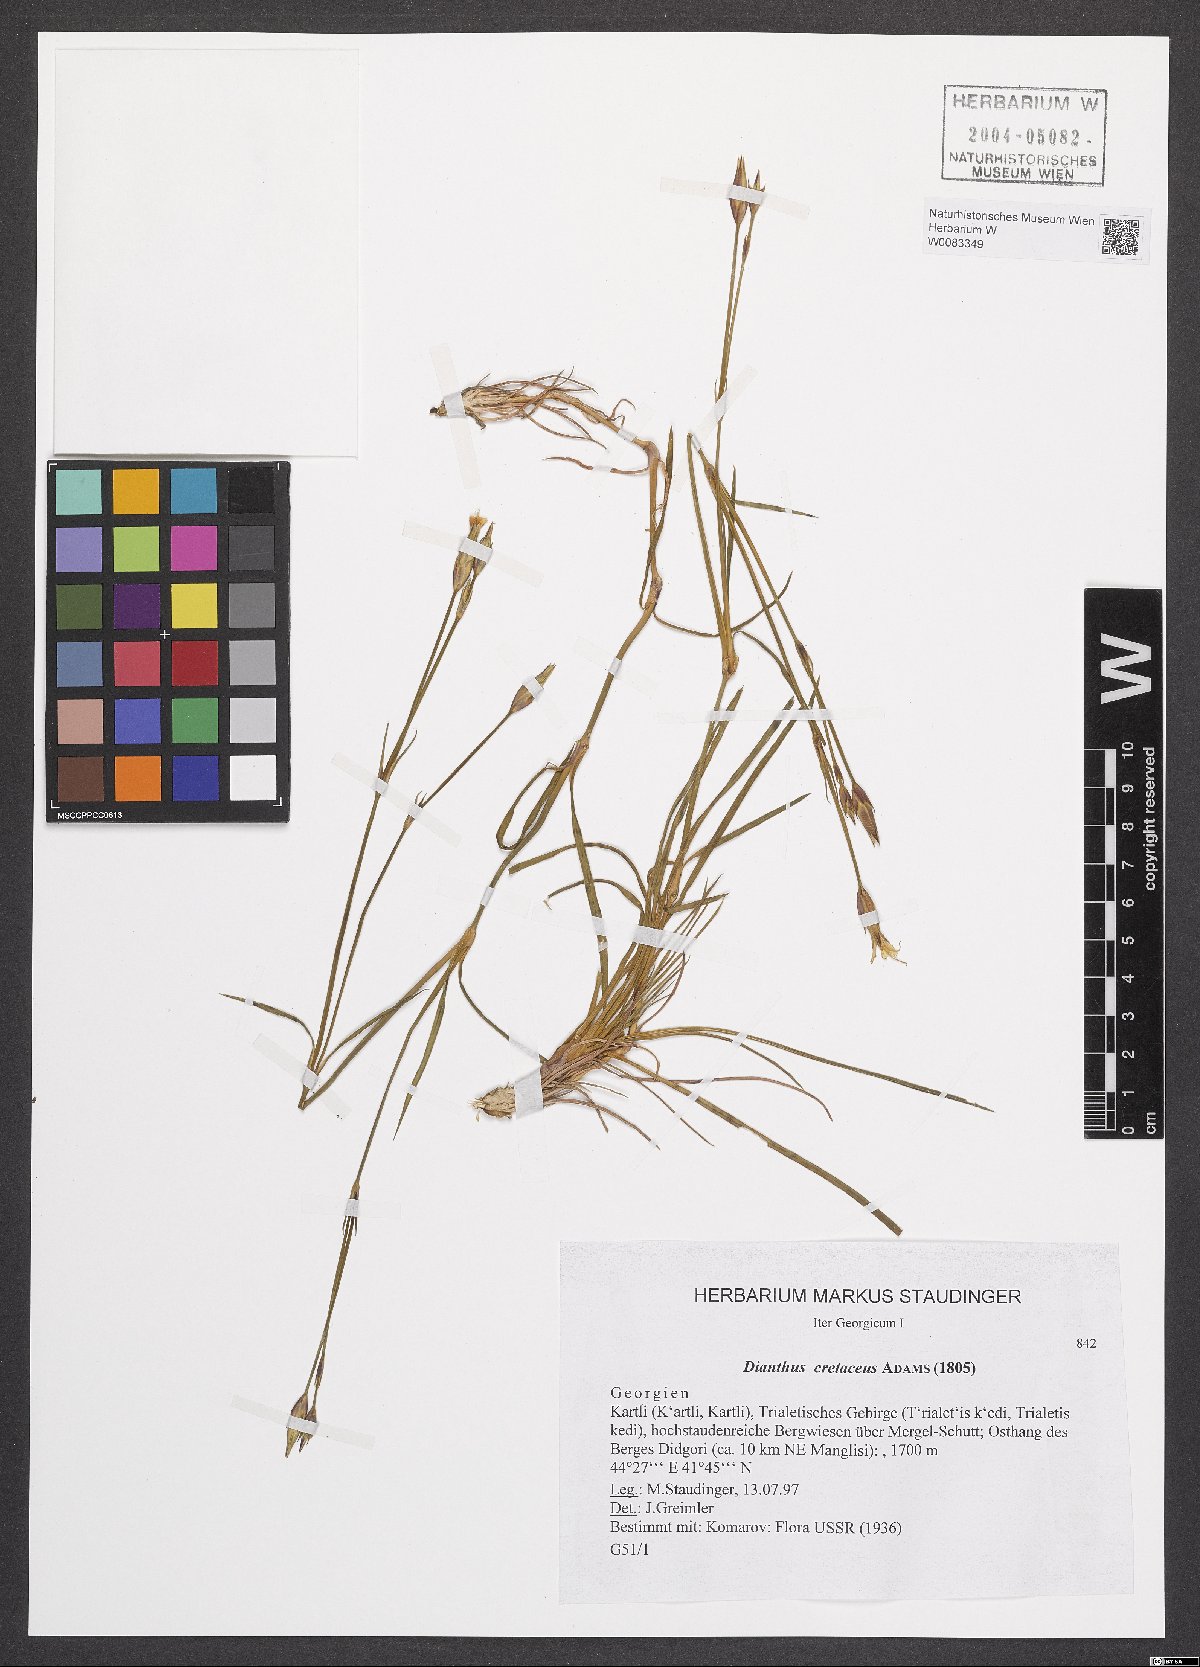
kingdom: Plantae
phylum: Tracheophyta
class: Magnoliopsida
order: Caryophyllales
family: Caryophyllaceae
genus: Dianthus
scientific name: Dianthus cretaceus
